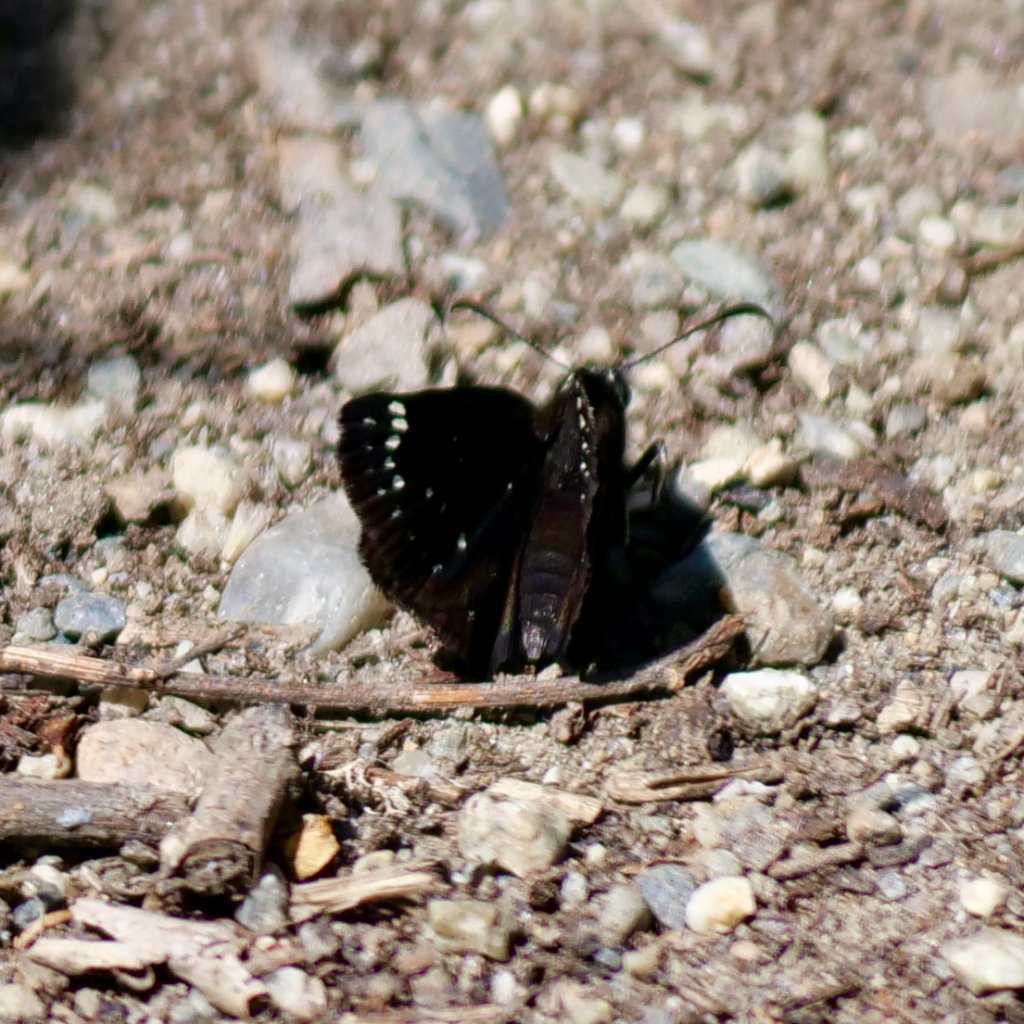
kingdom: Animalia
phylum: Arthropoda
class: Insecta
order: Lepidoptera
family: Hesperiidae
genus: Pholisora
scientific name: Pholisora catullus
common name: Common Sootywing
